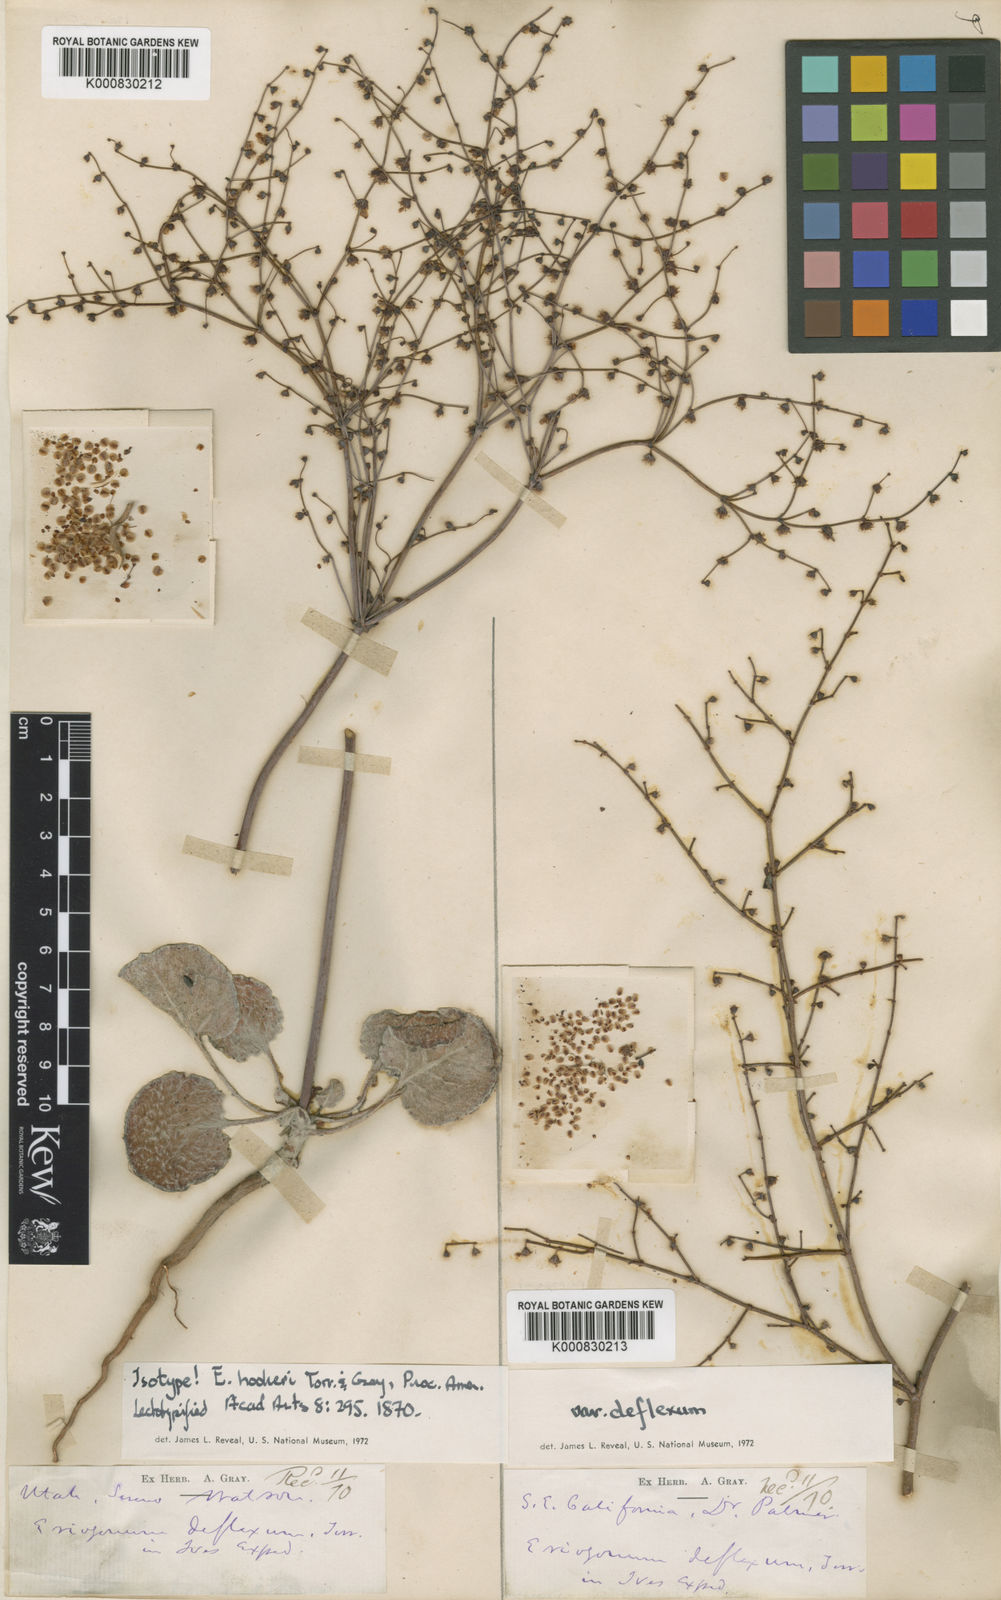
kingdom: Plantae
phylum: Tracheophyta
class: Magnoliopsida
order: Caryophyllales
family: Polygonaceae
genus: Eriogonum
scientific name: Eriogonum hookeri
